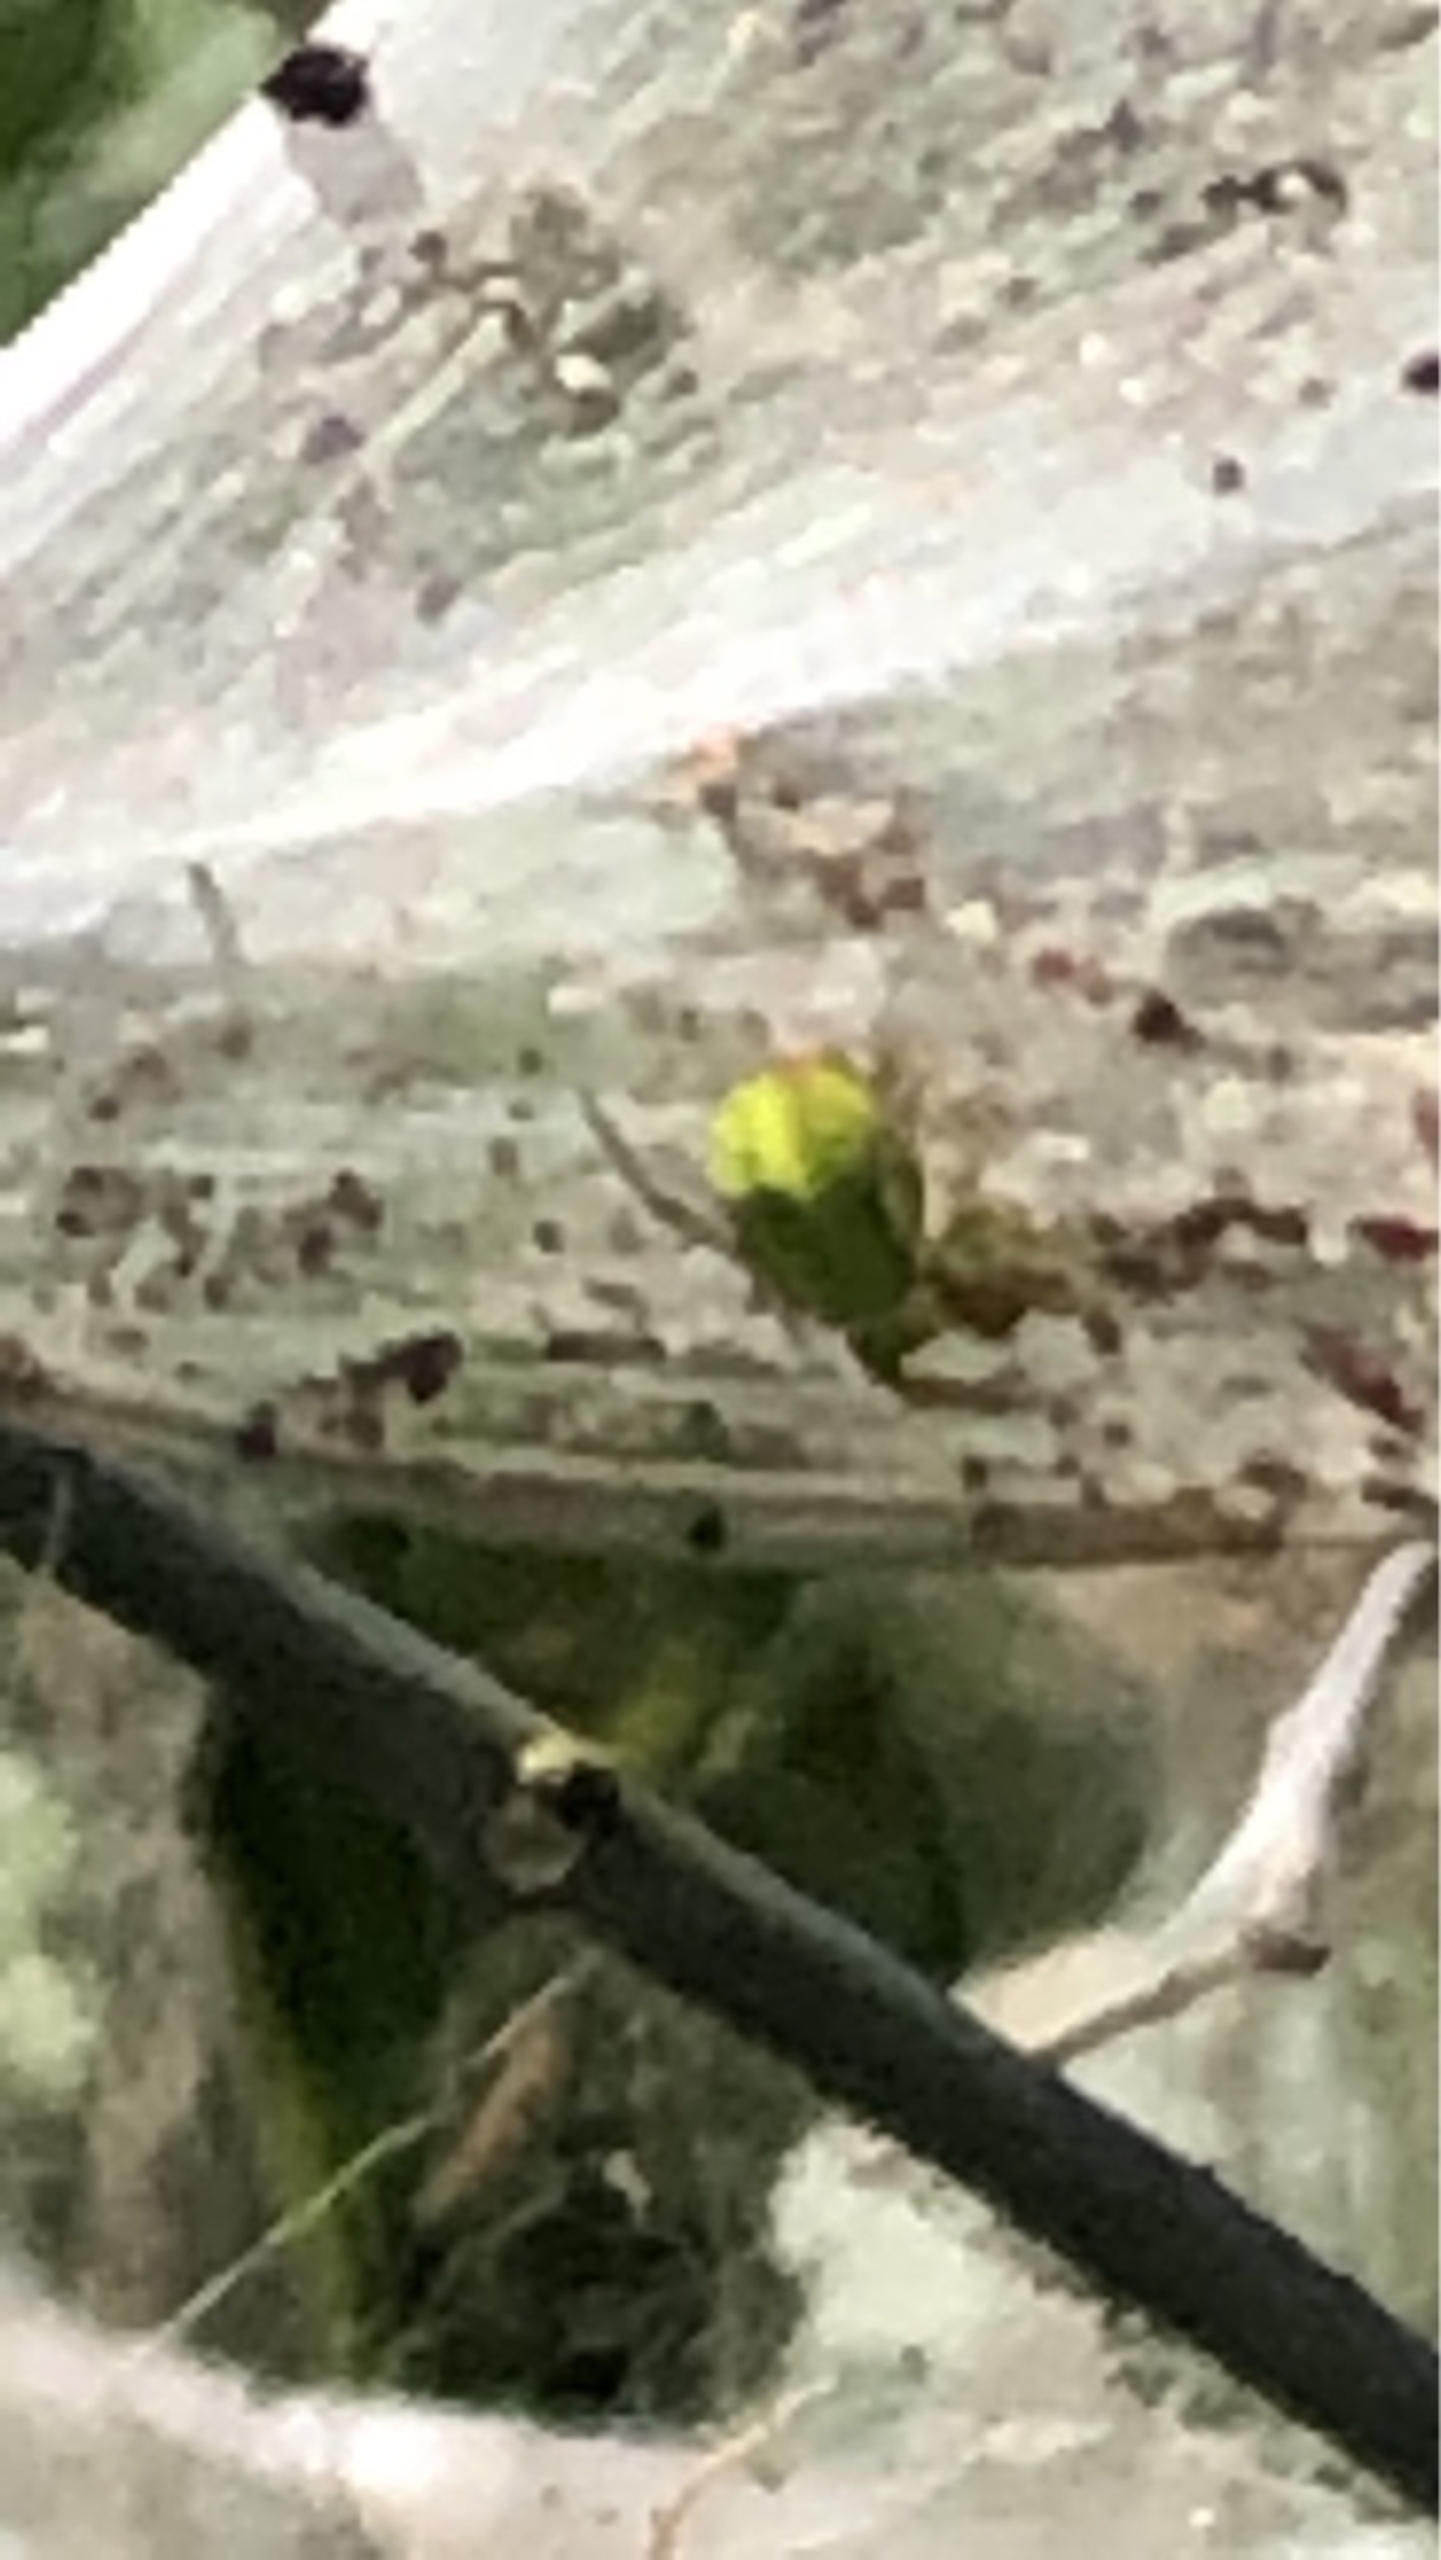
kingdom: Animalia
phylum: Arthropoda
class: Arachnida
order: Araneae
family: Araneidae
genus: Araniella
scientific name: Araniella
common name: Agurkeedderkopslægten
